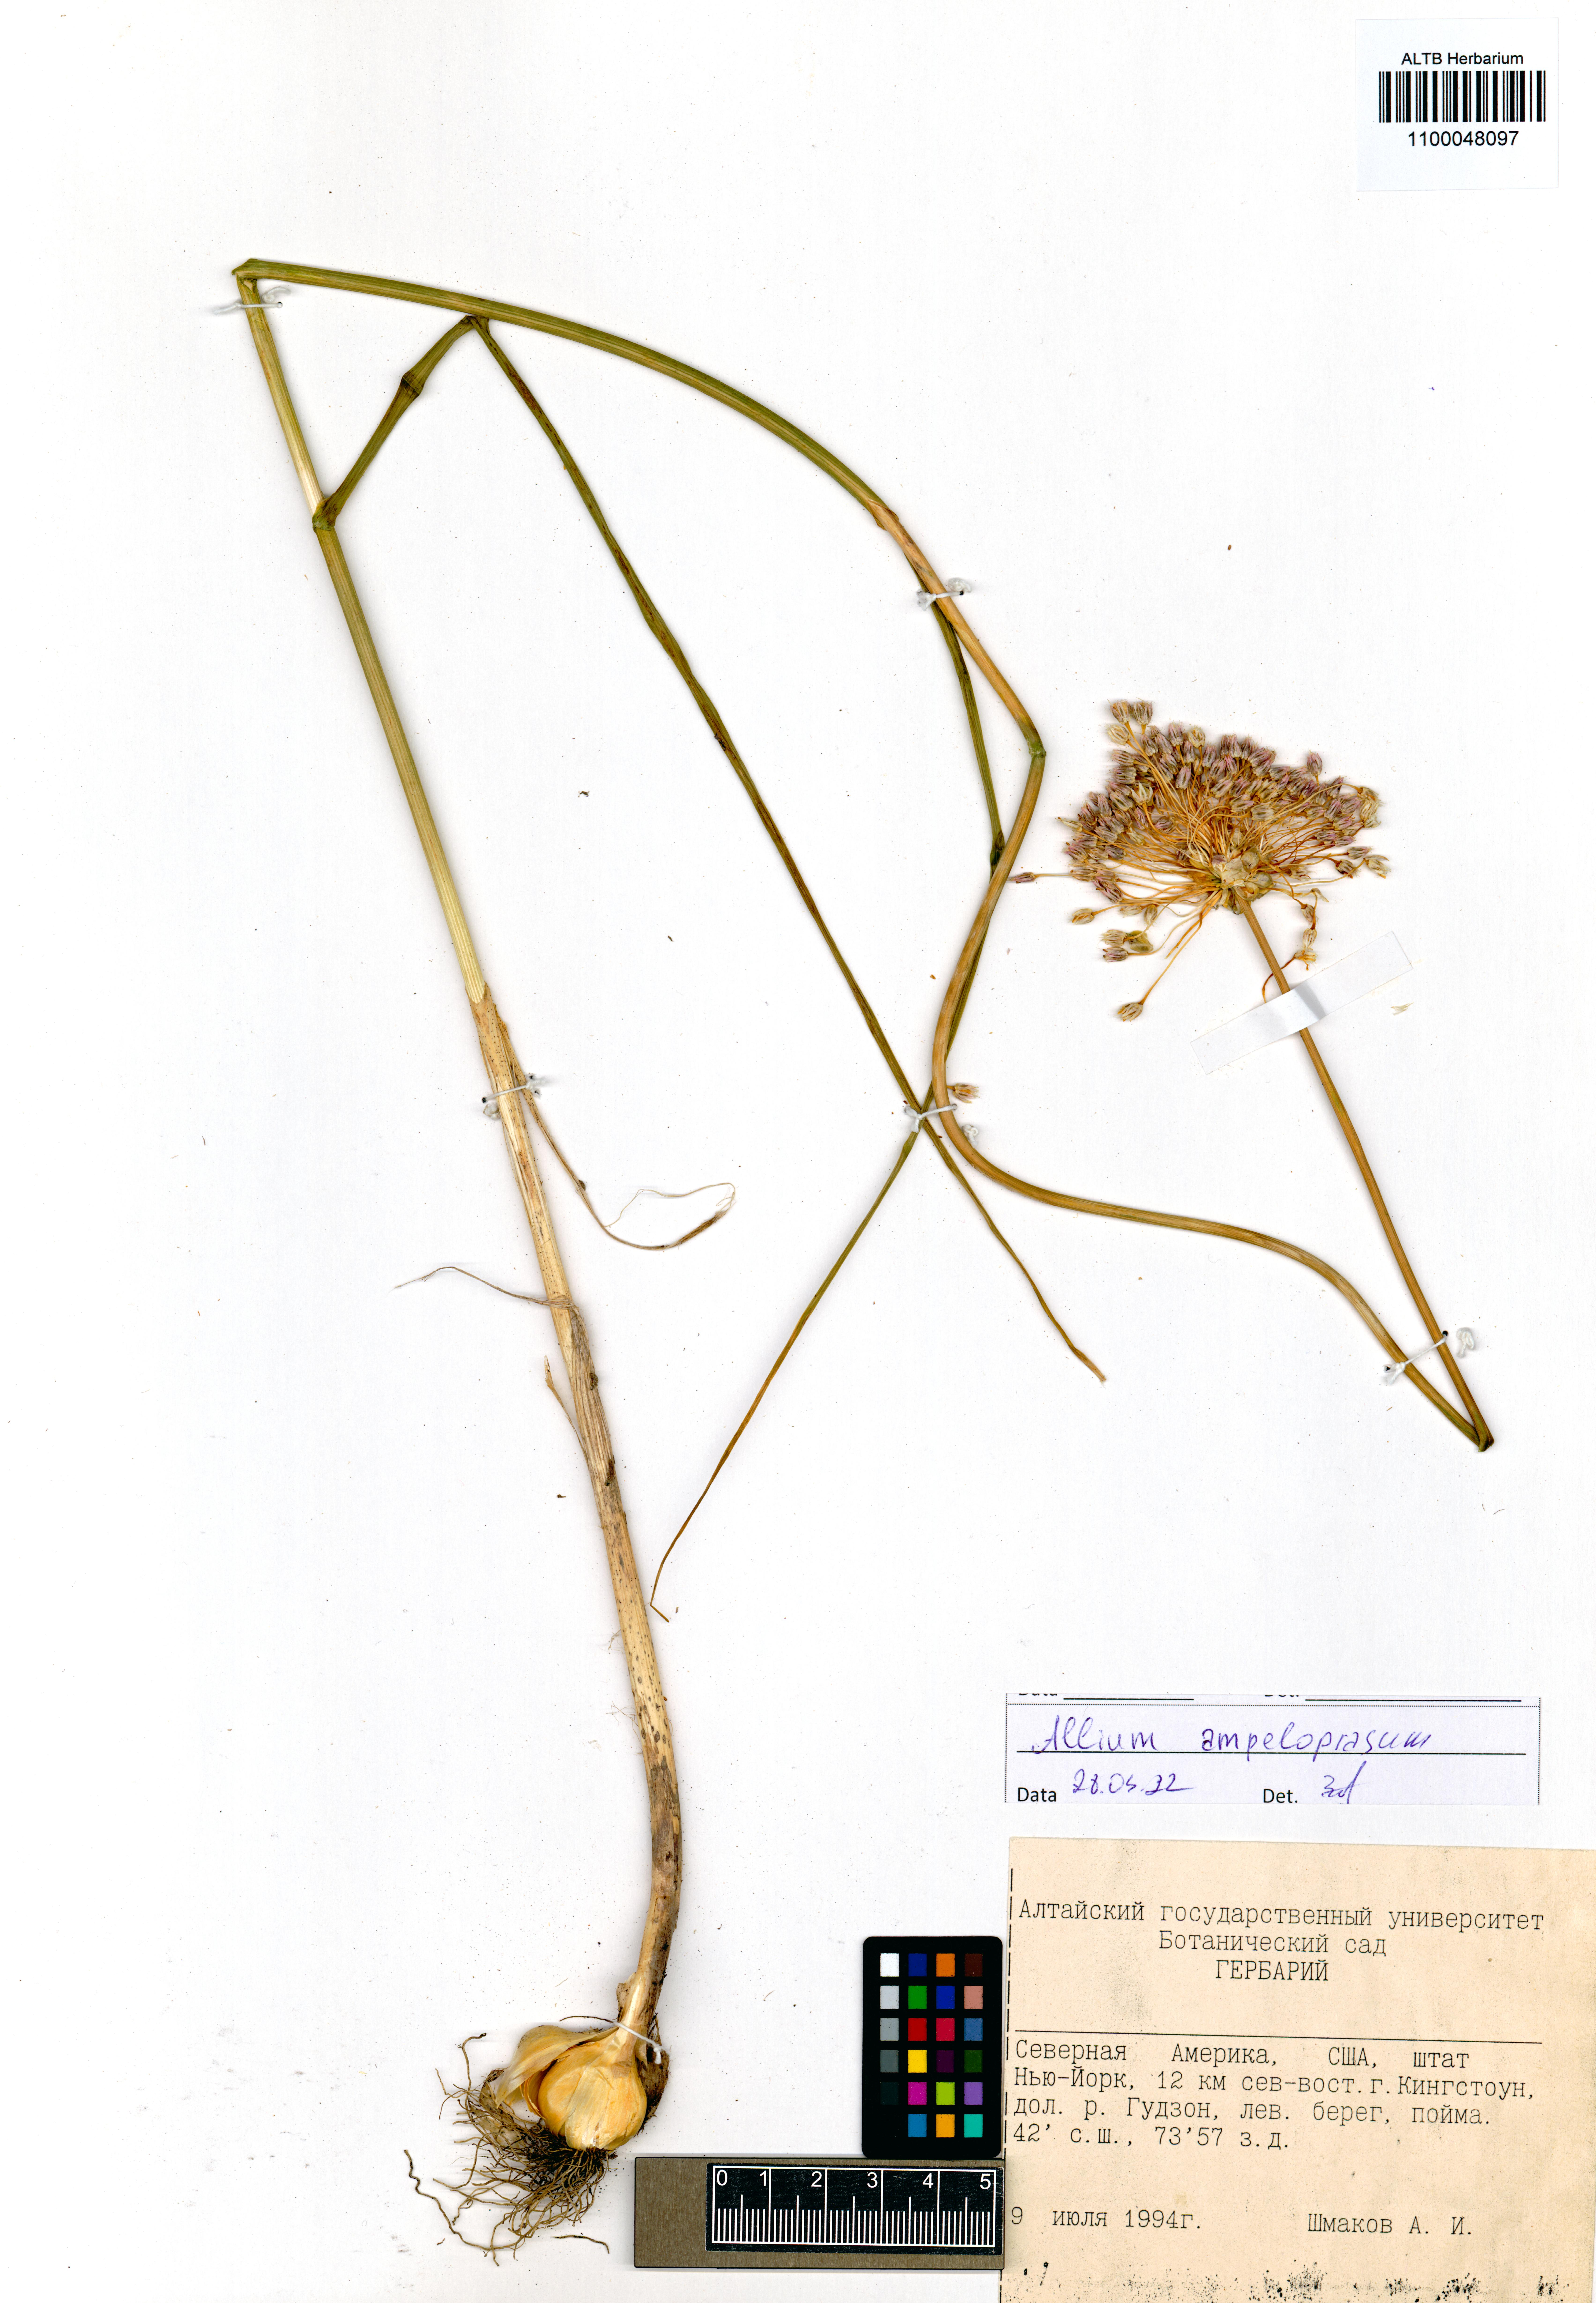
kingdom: Plantae
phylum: Tracheophyta
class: Liliopsida
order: Asparagales
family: Amaryllidaceae
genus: Allium
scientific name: Allium ampeloprasum
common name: Wild leek
